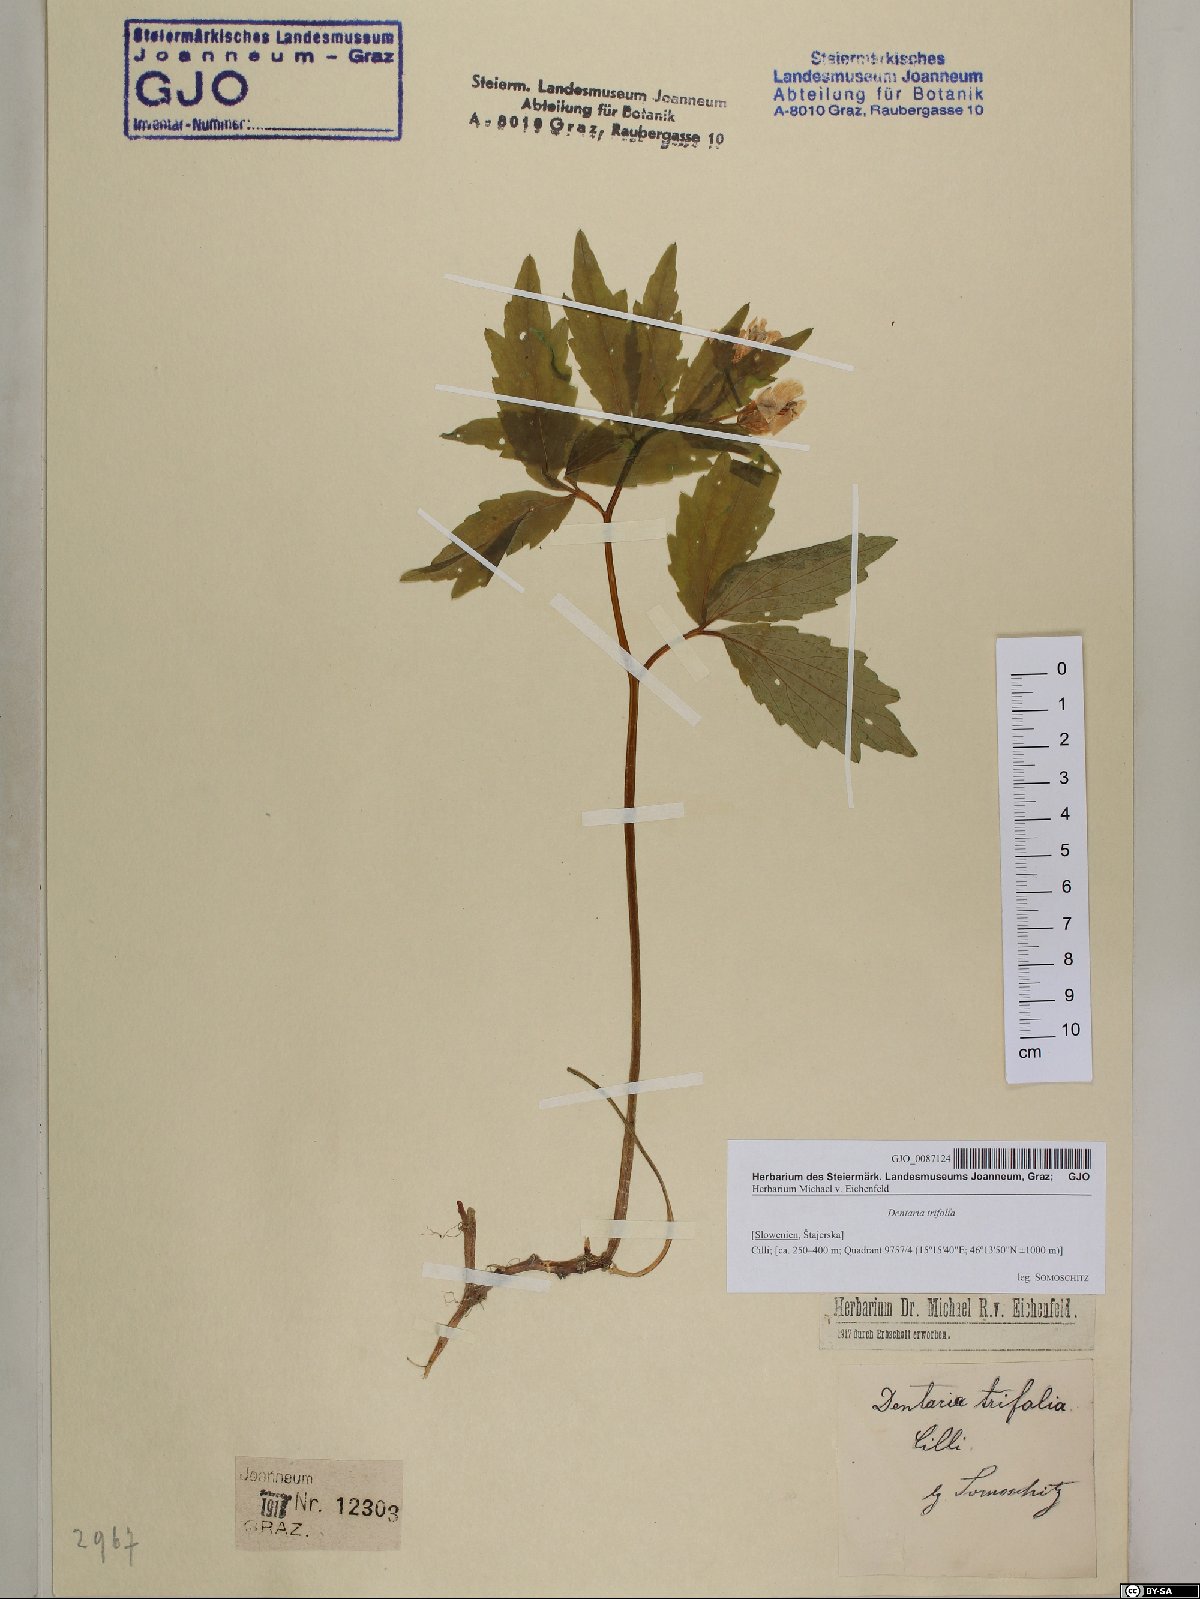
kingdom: Plantae
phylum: Tracheophyta
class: Magnoliopsida
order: Brassicales
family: Brassicaceae
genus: Cardamine
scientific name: Cardamine waldsteinii
